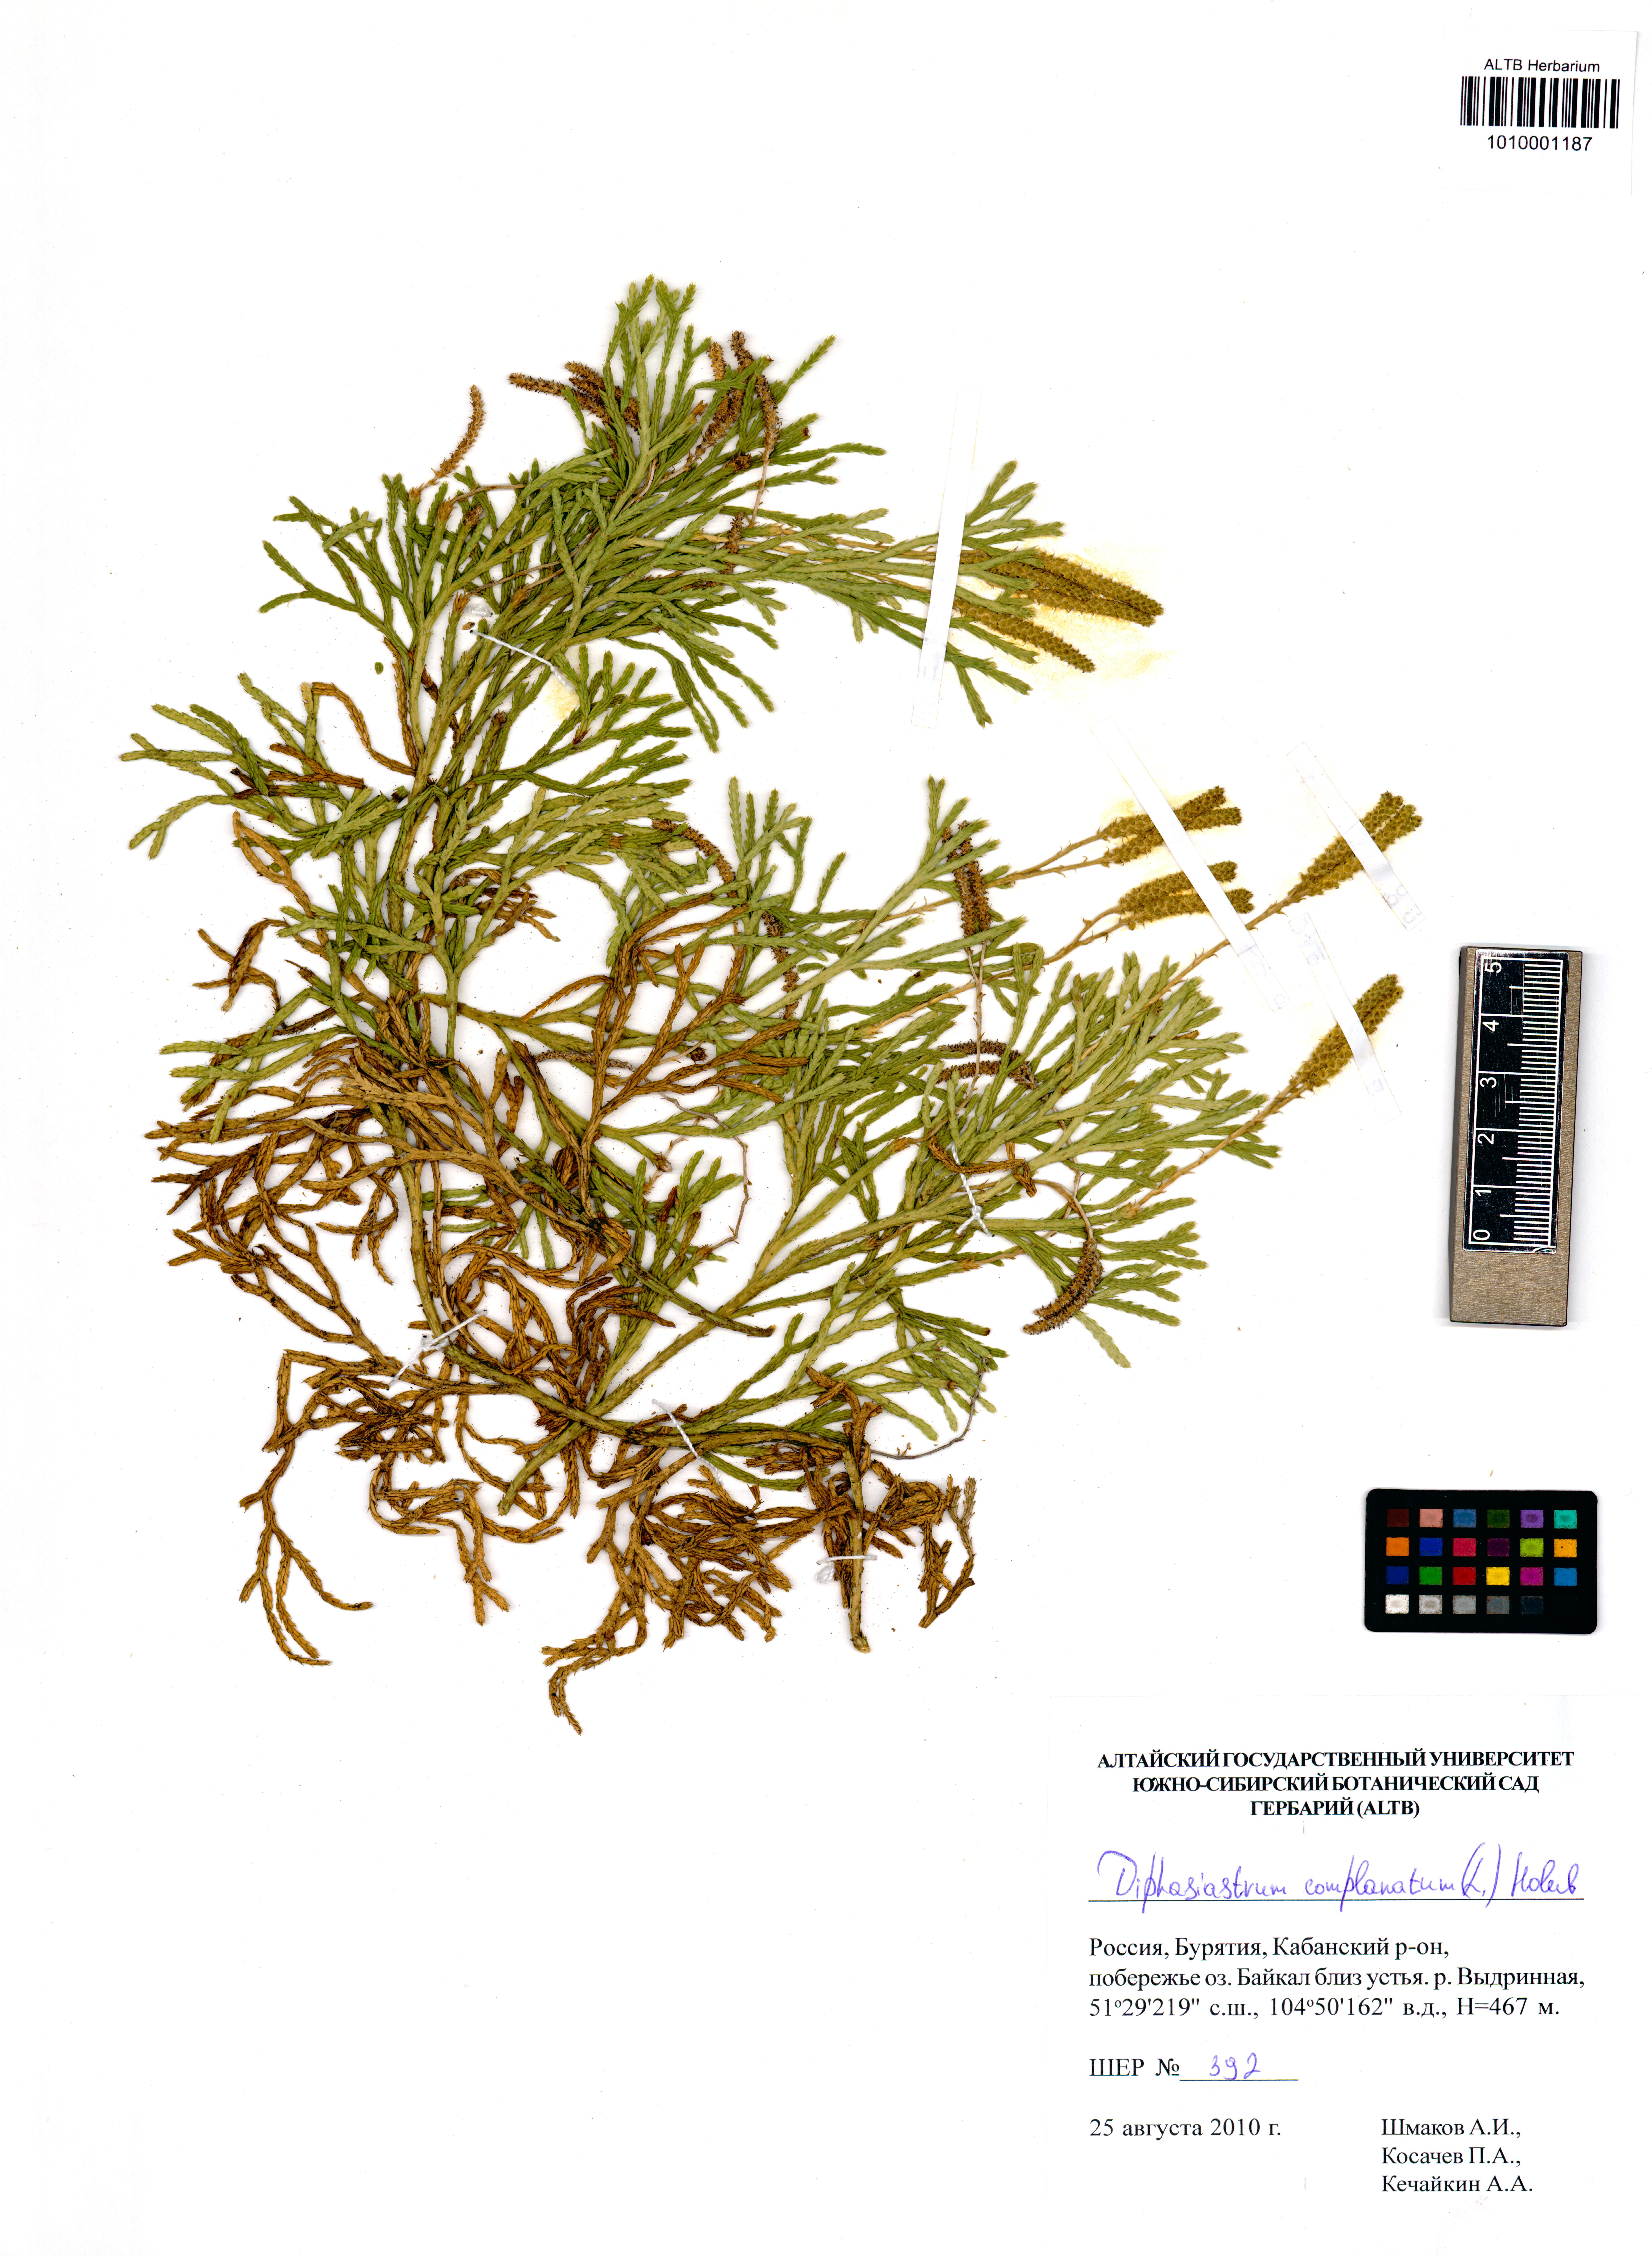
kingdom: Plantae
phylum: Tracheophyta
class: Lycopodiopsida
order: Lycopodiales
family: Lycopodiaceae
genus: Diphasiastrum
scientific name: Diphasiastrum complanatum
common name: Northern running-pine
